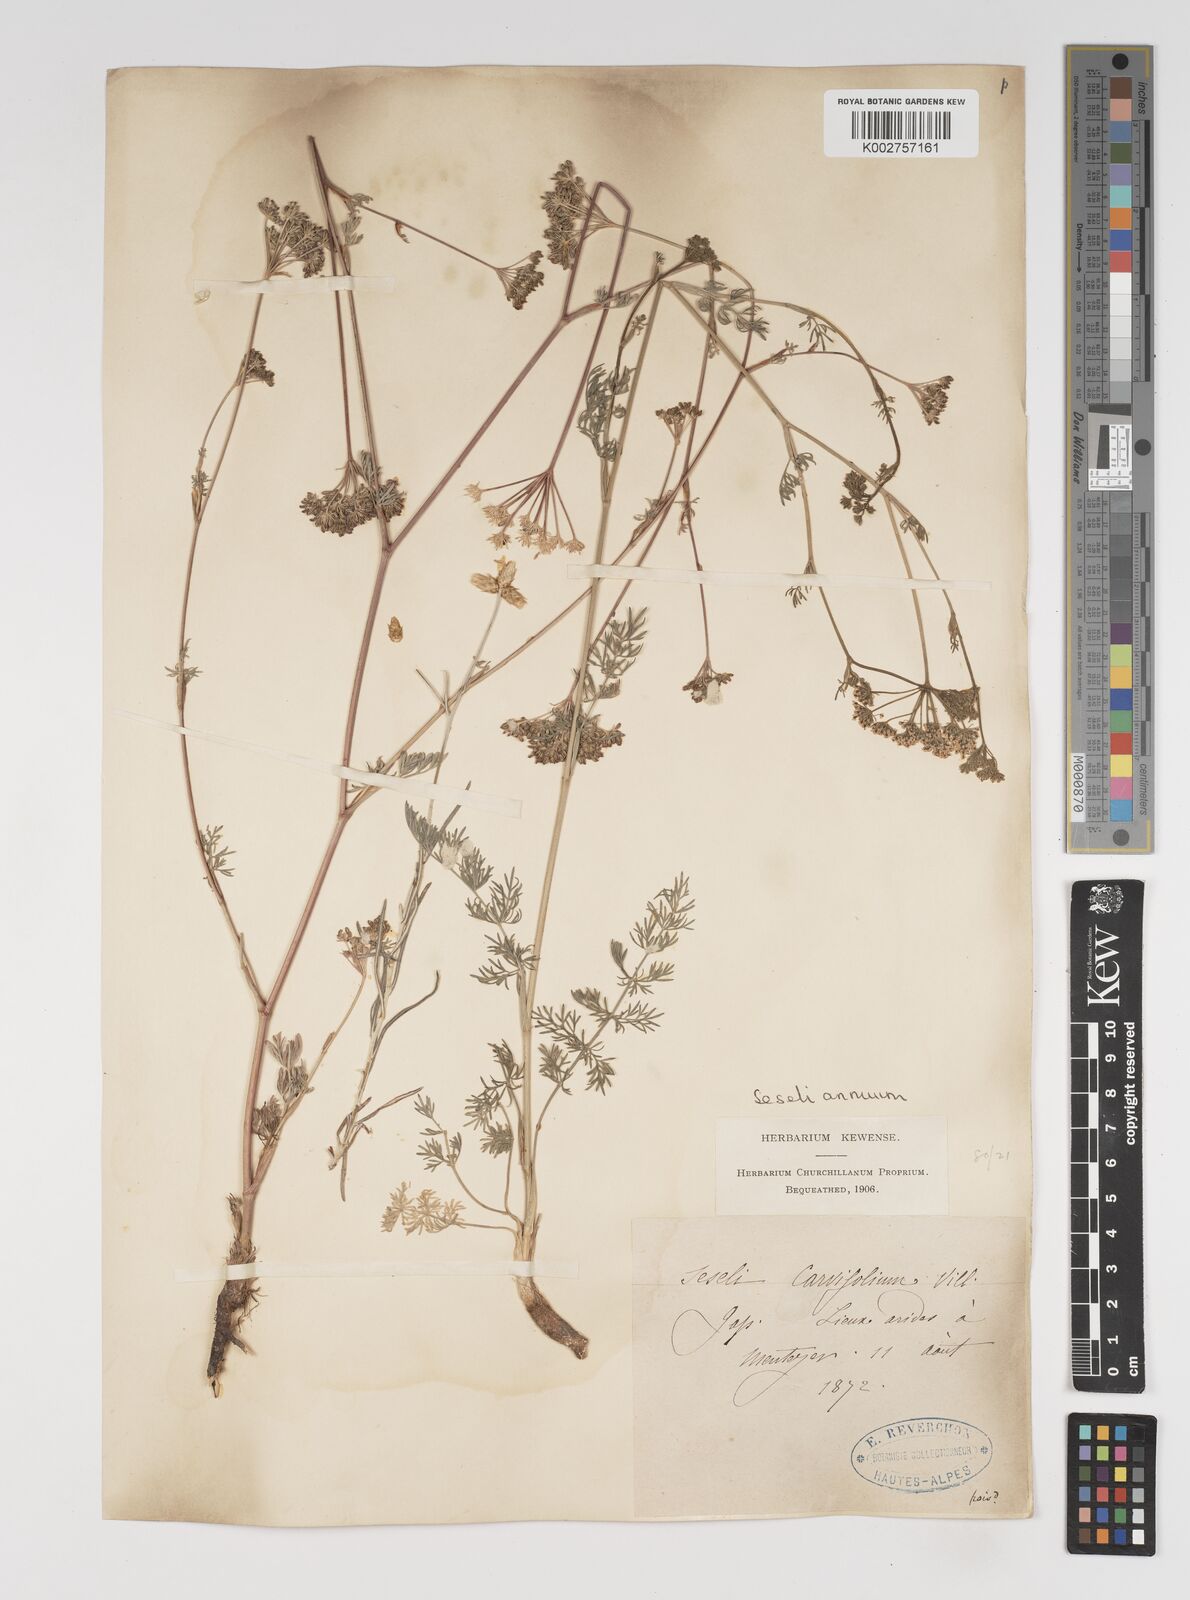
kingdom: Plantae
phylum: Tracheophyta
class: Magnoliopsida
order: Apiales
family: Apiaceae
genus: Seseli
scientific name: Seseli annuum
